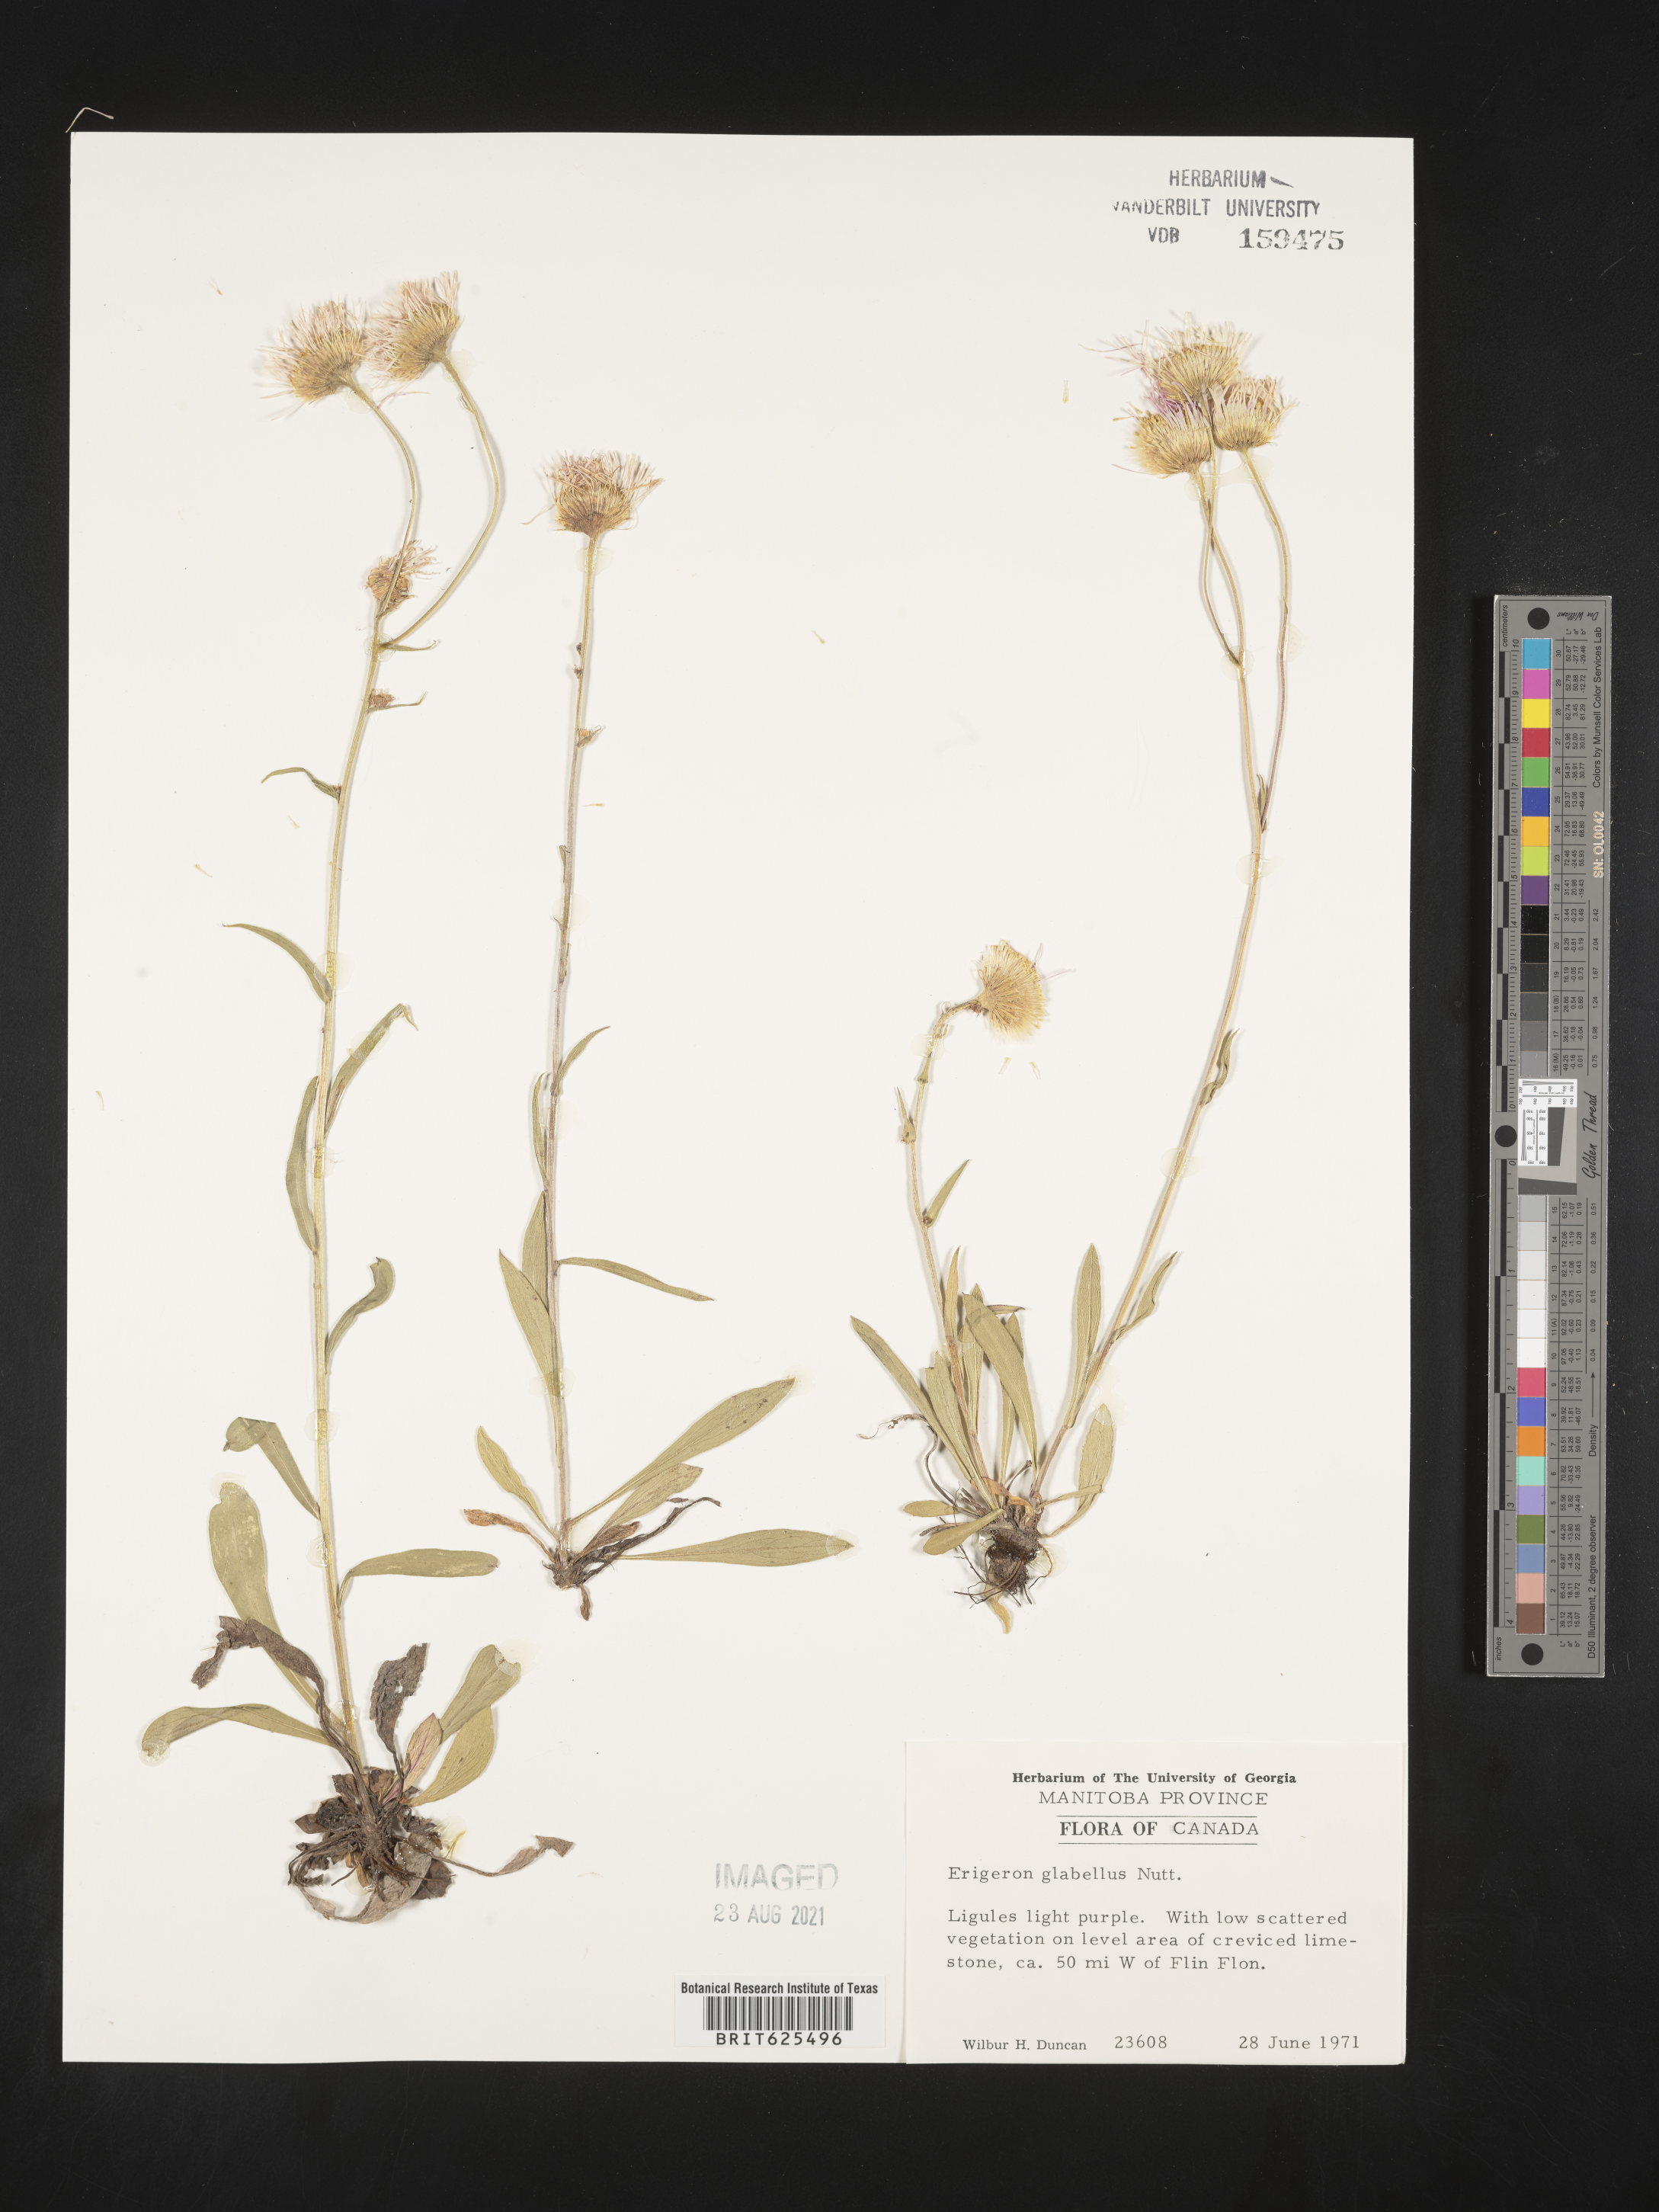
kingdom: Plantae
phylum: Tracheophyta
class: Magnoliopsida
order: Asterales
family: Asteraceae
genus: Erigeron
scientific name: Erigeron glabellus
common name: Smooth fleabane
